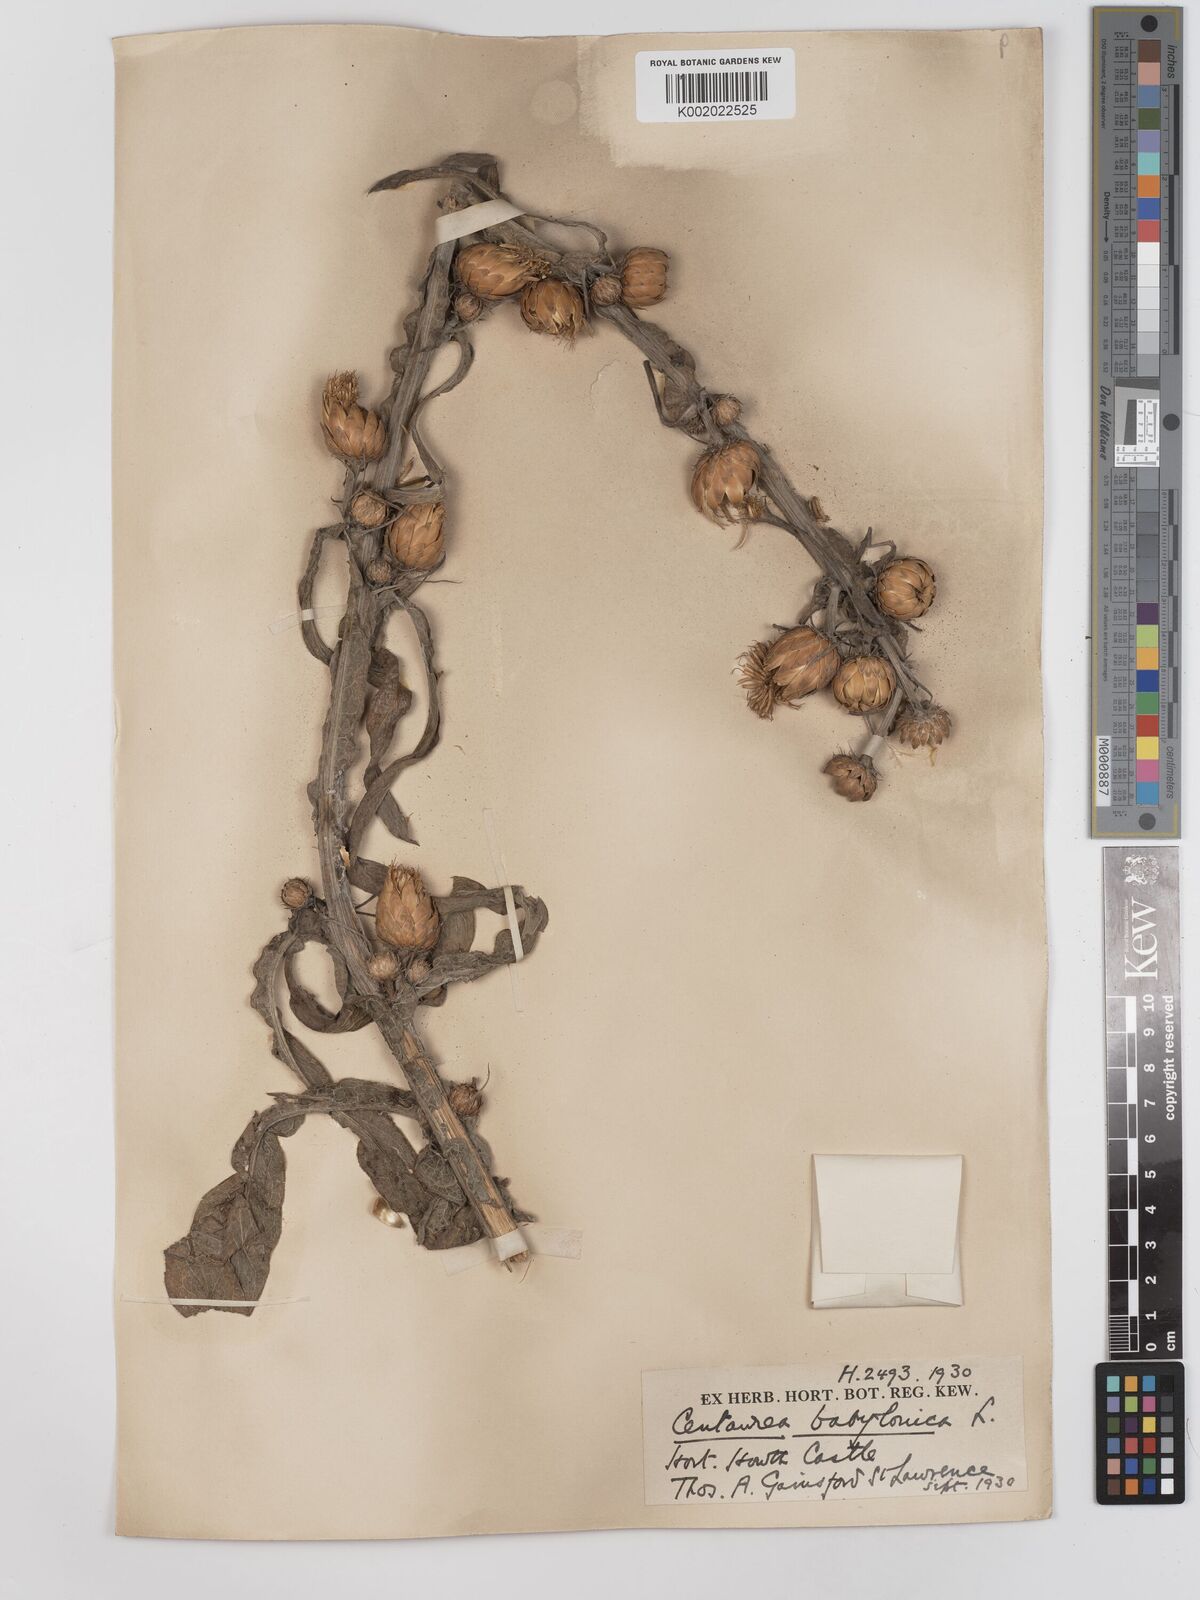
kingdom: Plantae
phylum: Tracheophyta
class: Magnoliopsida
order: Asterales
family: Asteraceae
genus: Centaurea
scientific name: Centaurea babylonica
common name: Syrian knapweed
